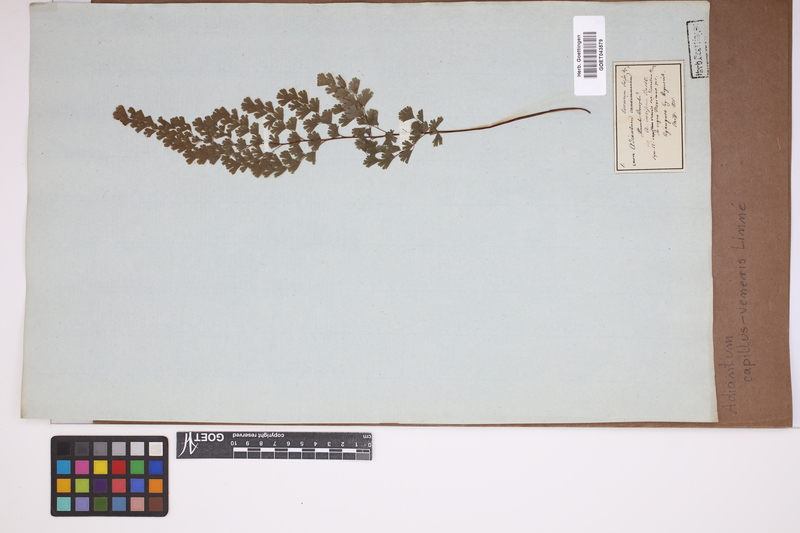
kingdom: Plantae
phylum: Tracheophyta
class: Polypodiopsida
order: Polypodiales
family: Pteridaceae
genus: Adiantum
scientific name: Adiantum capillus-veneris
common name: Maidenhair fern
